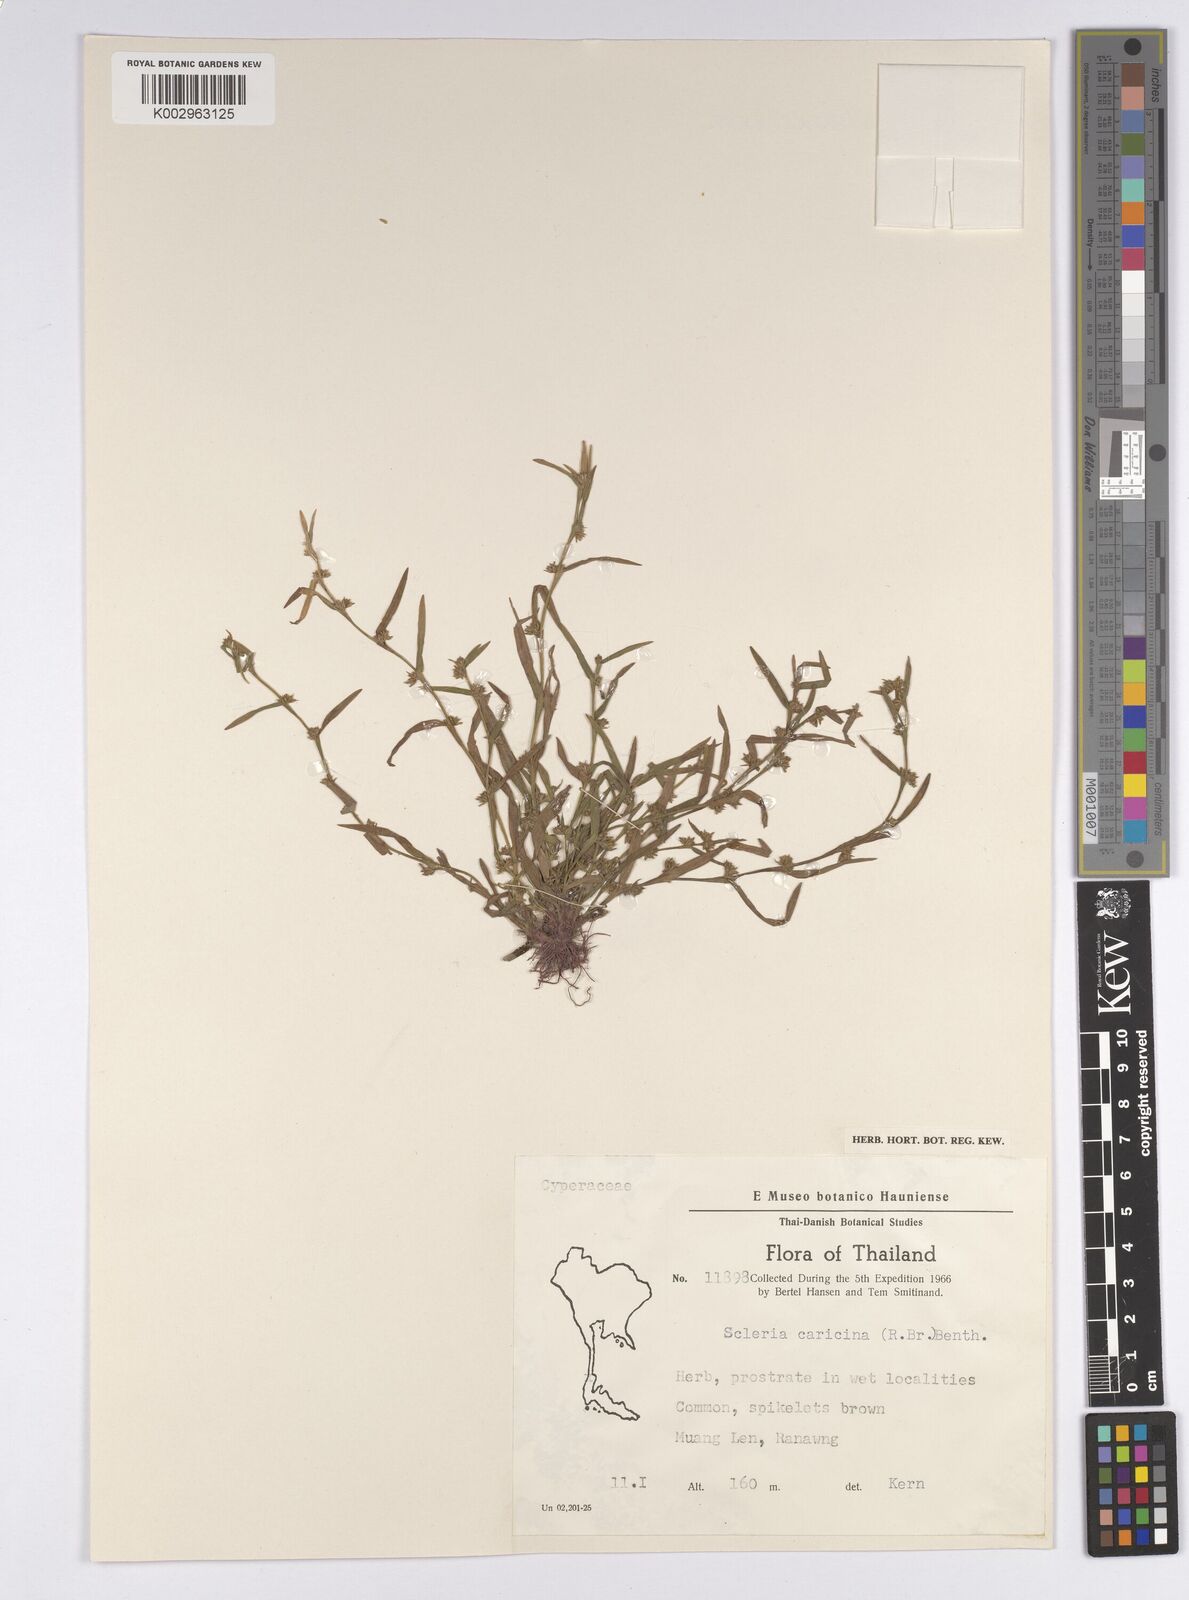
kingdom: Plantae
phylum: Tracheophyta
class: Liliopsida
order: Poales
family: Cyperaceae
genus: Diplacrum
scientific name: Diplacrum caricinum
